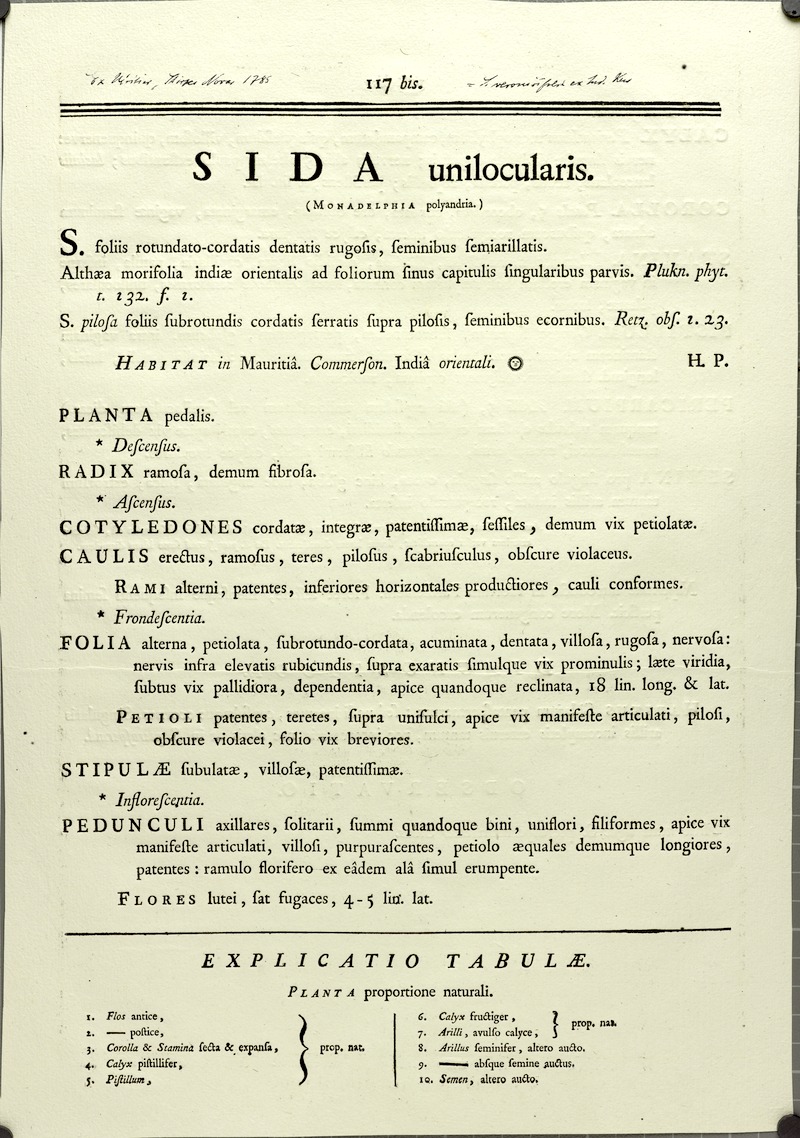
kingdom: Plantae
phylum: Tracheophyta
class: Magnoliopsida
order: Malvales
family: Malvaceae
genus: Sida
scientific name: Sida cordata
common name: Long-stalk sida
